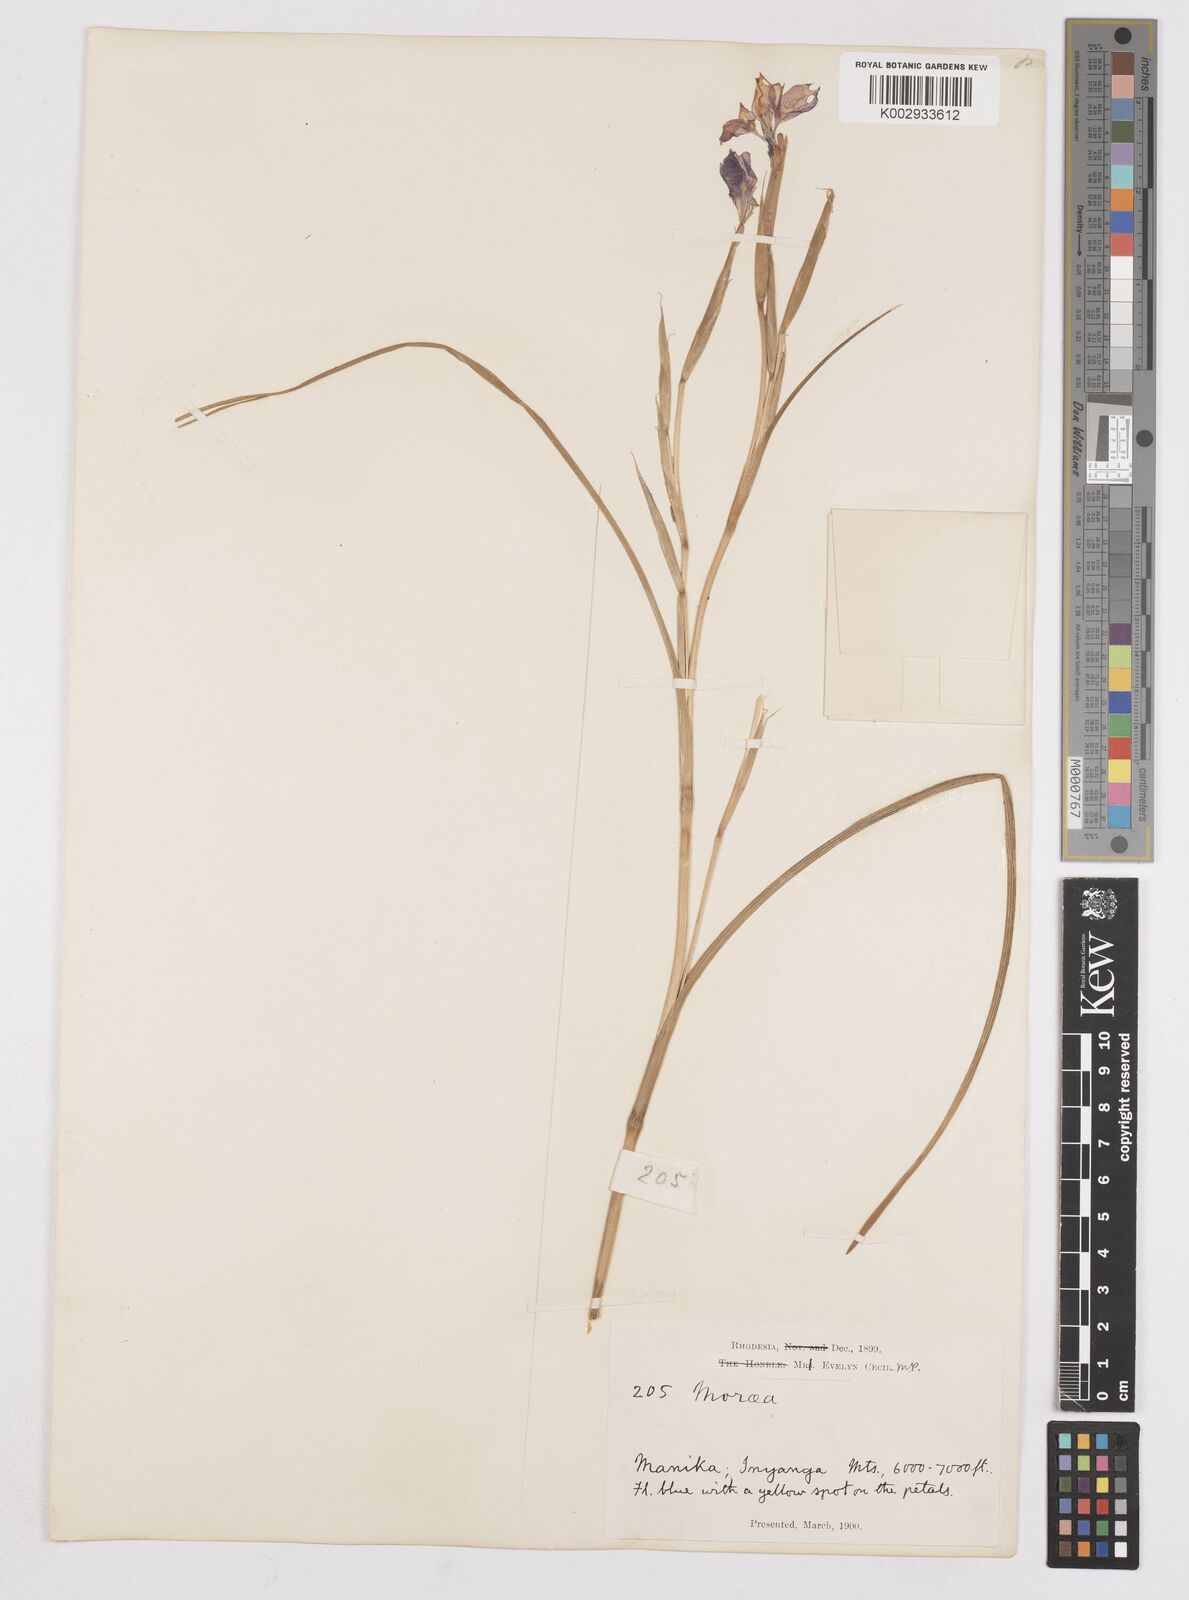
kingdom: Plantae
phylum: Tracheophyta
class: Liliopsida
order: Asparagales
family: Iridaceae
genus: Moraea
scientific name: Moraea carsonii
